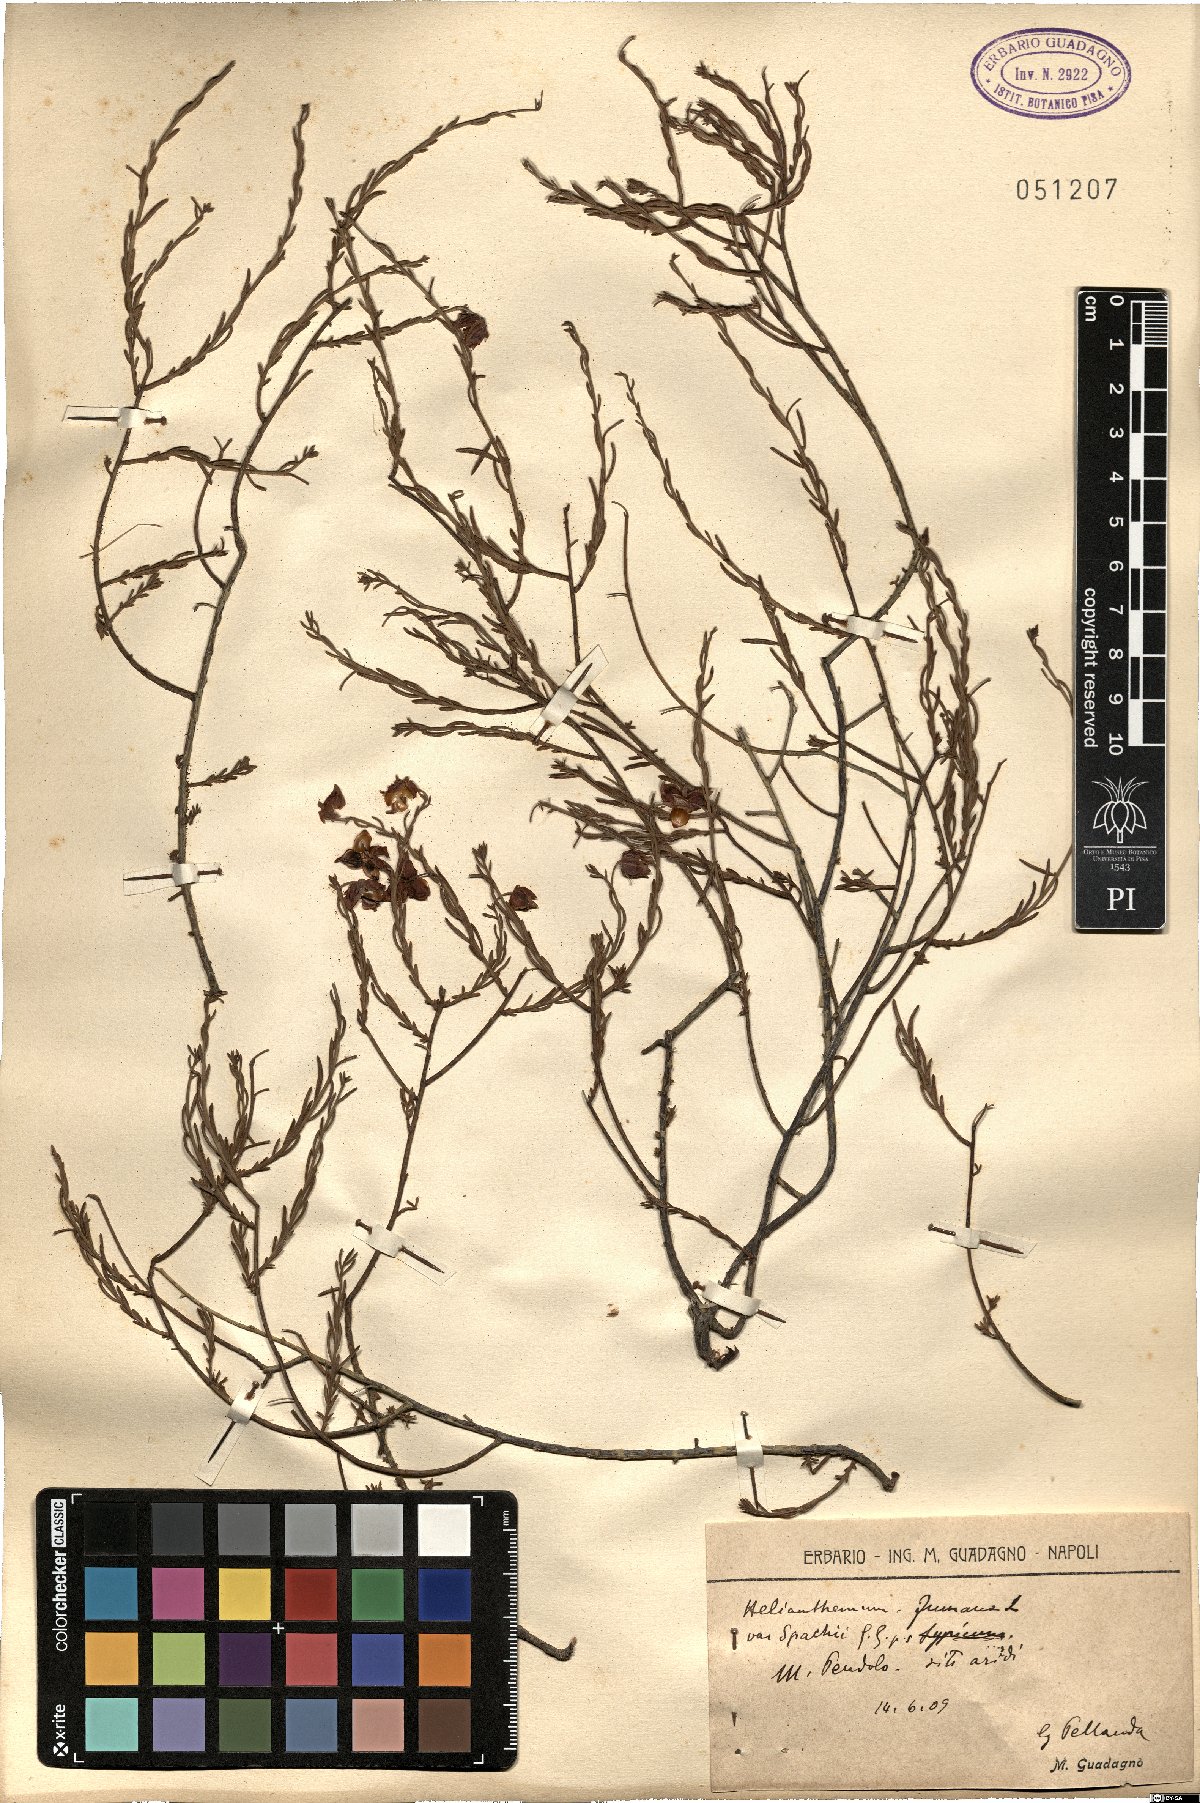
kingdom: Plantae
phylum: Tracheophyta
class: Magnoliopsida
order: Malvales
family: Cistaceae
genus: Fumana
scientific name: Fumana ericifolia
